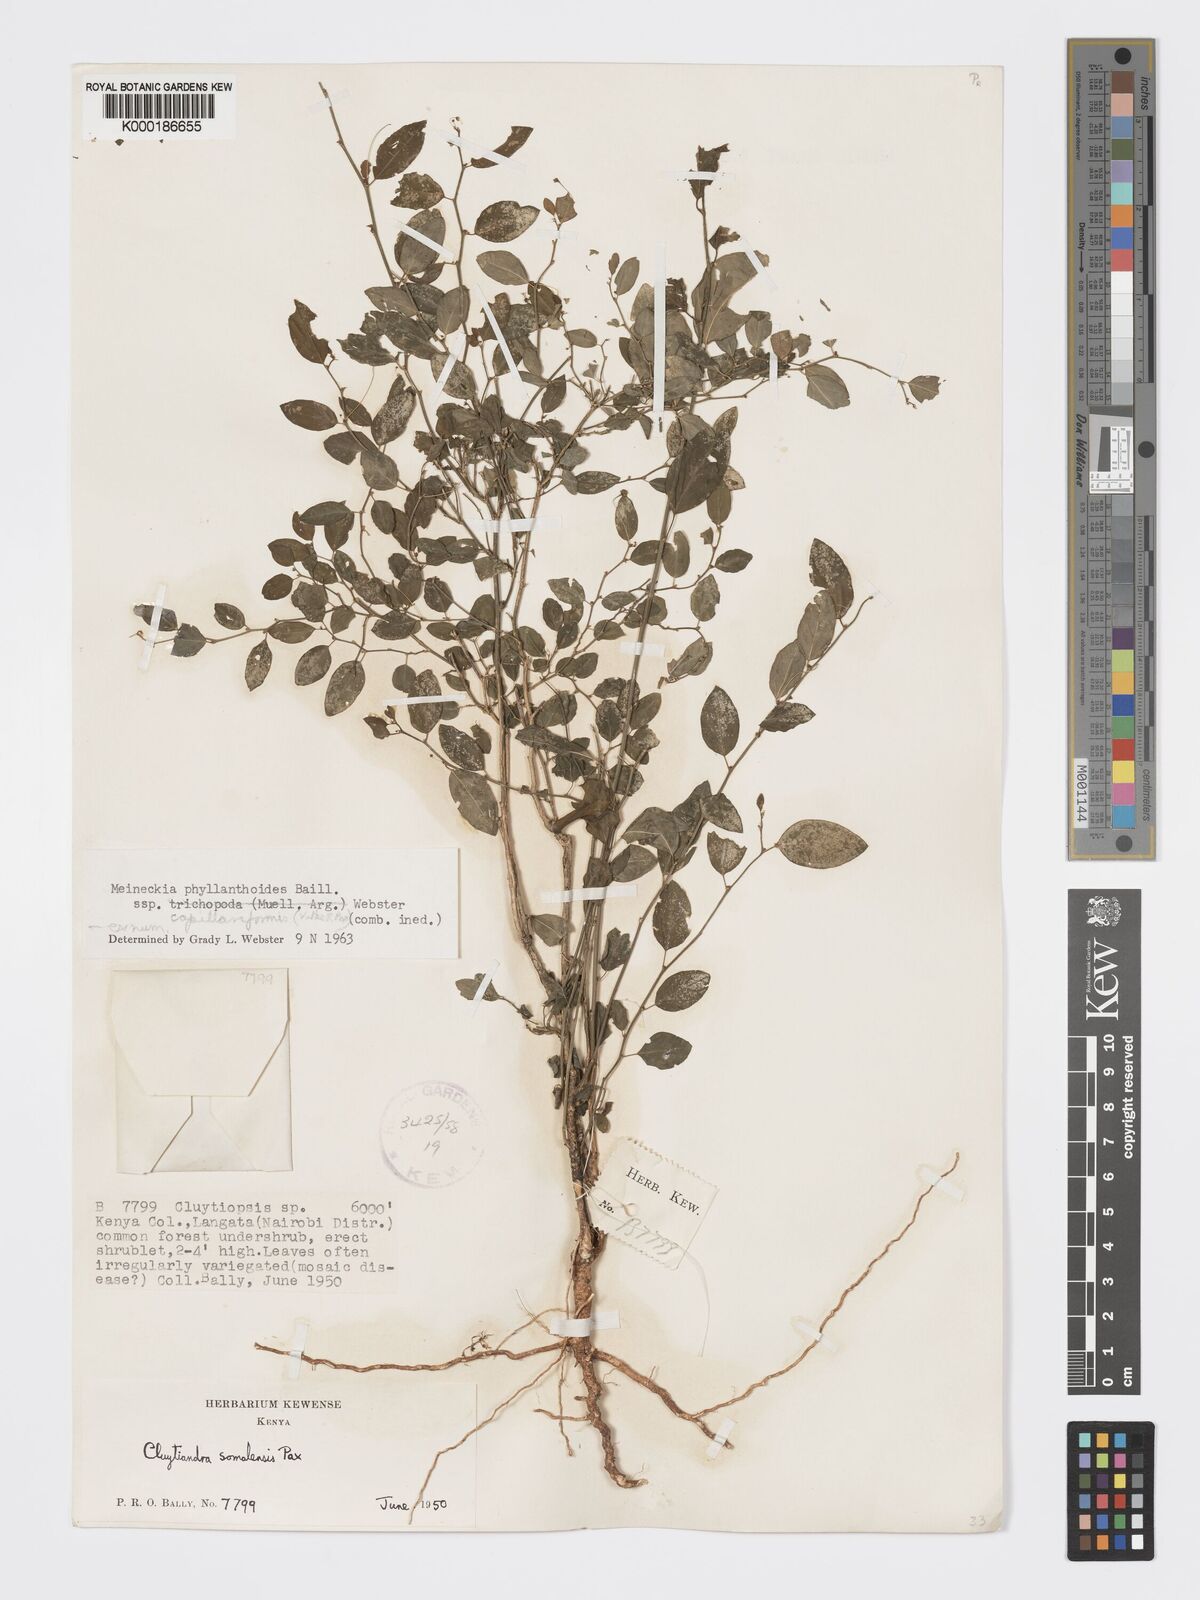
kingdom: Plantae
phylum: Tracheophyta
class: Magnoliopsida
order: Malpighiales
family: Phyllanthaceae
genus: Meineckia
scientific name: Meineckia phyllanthoides
